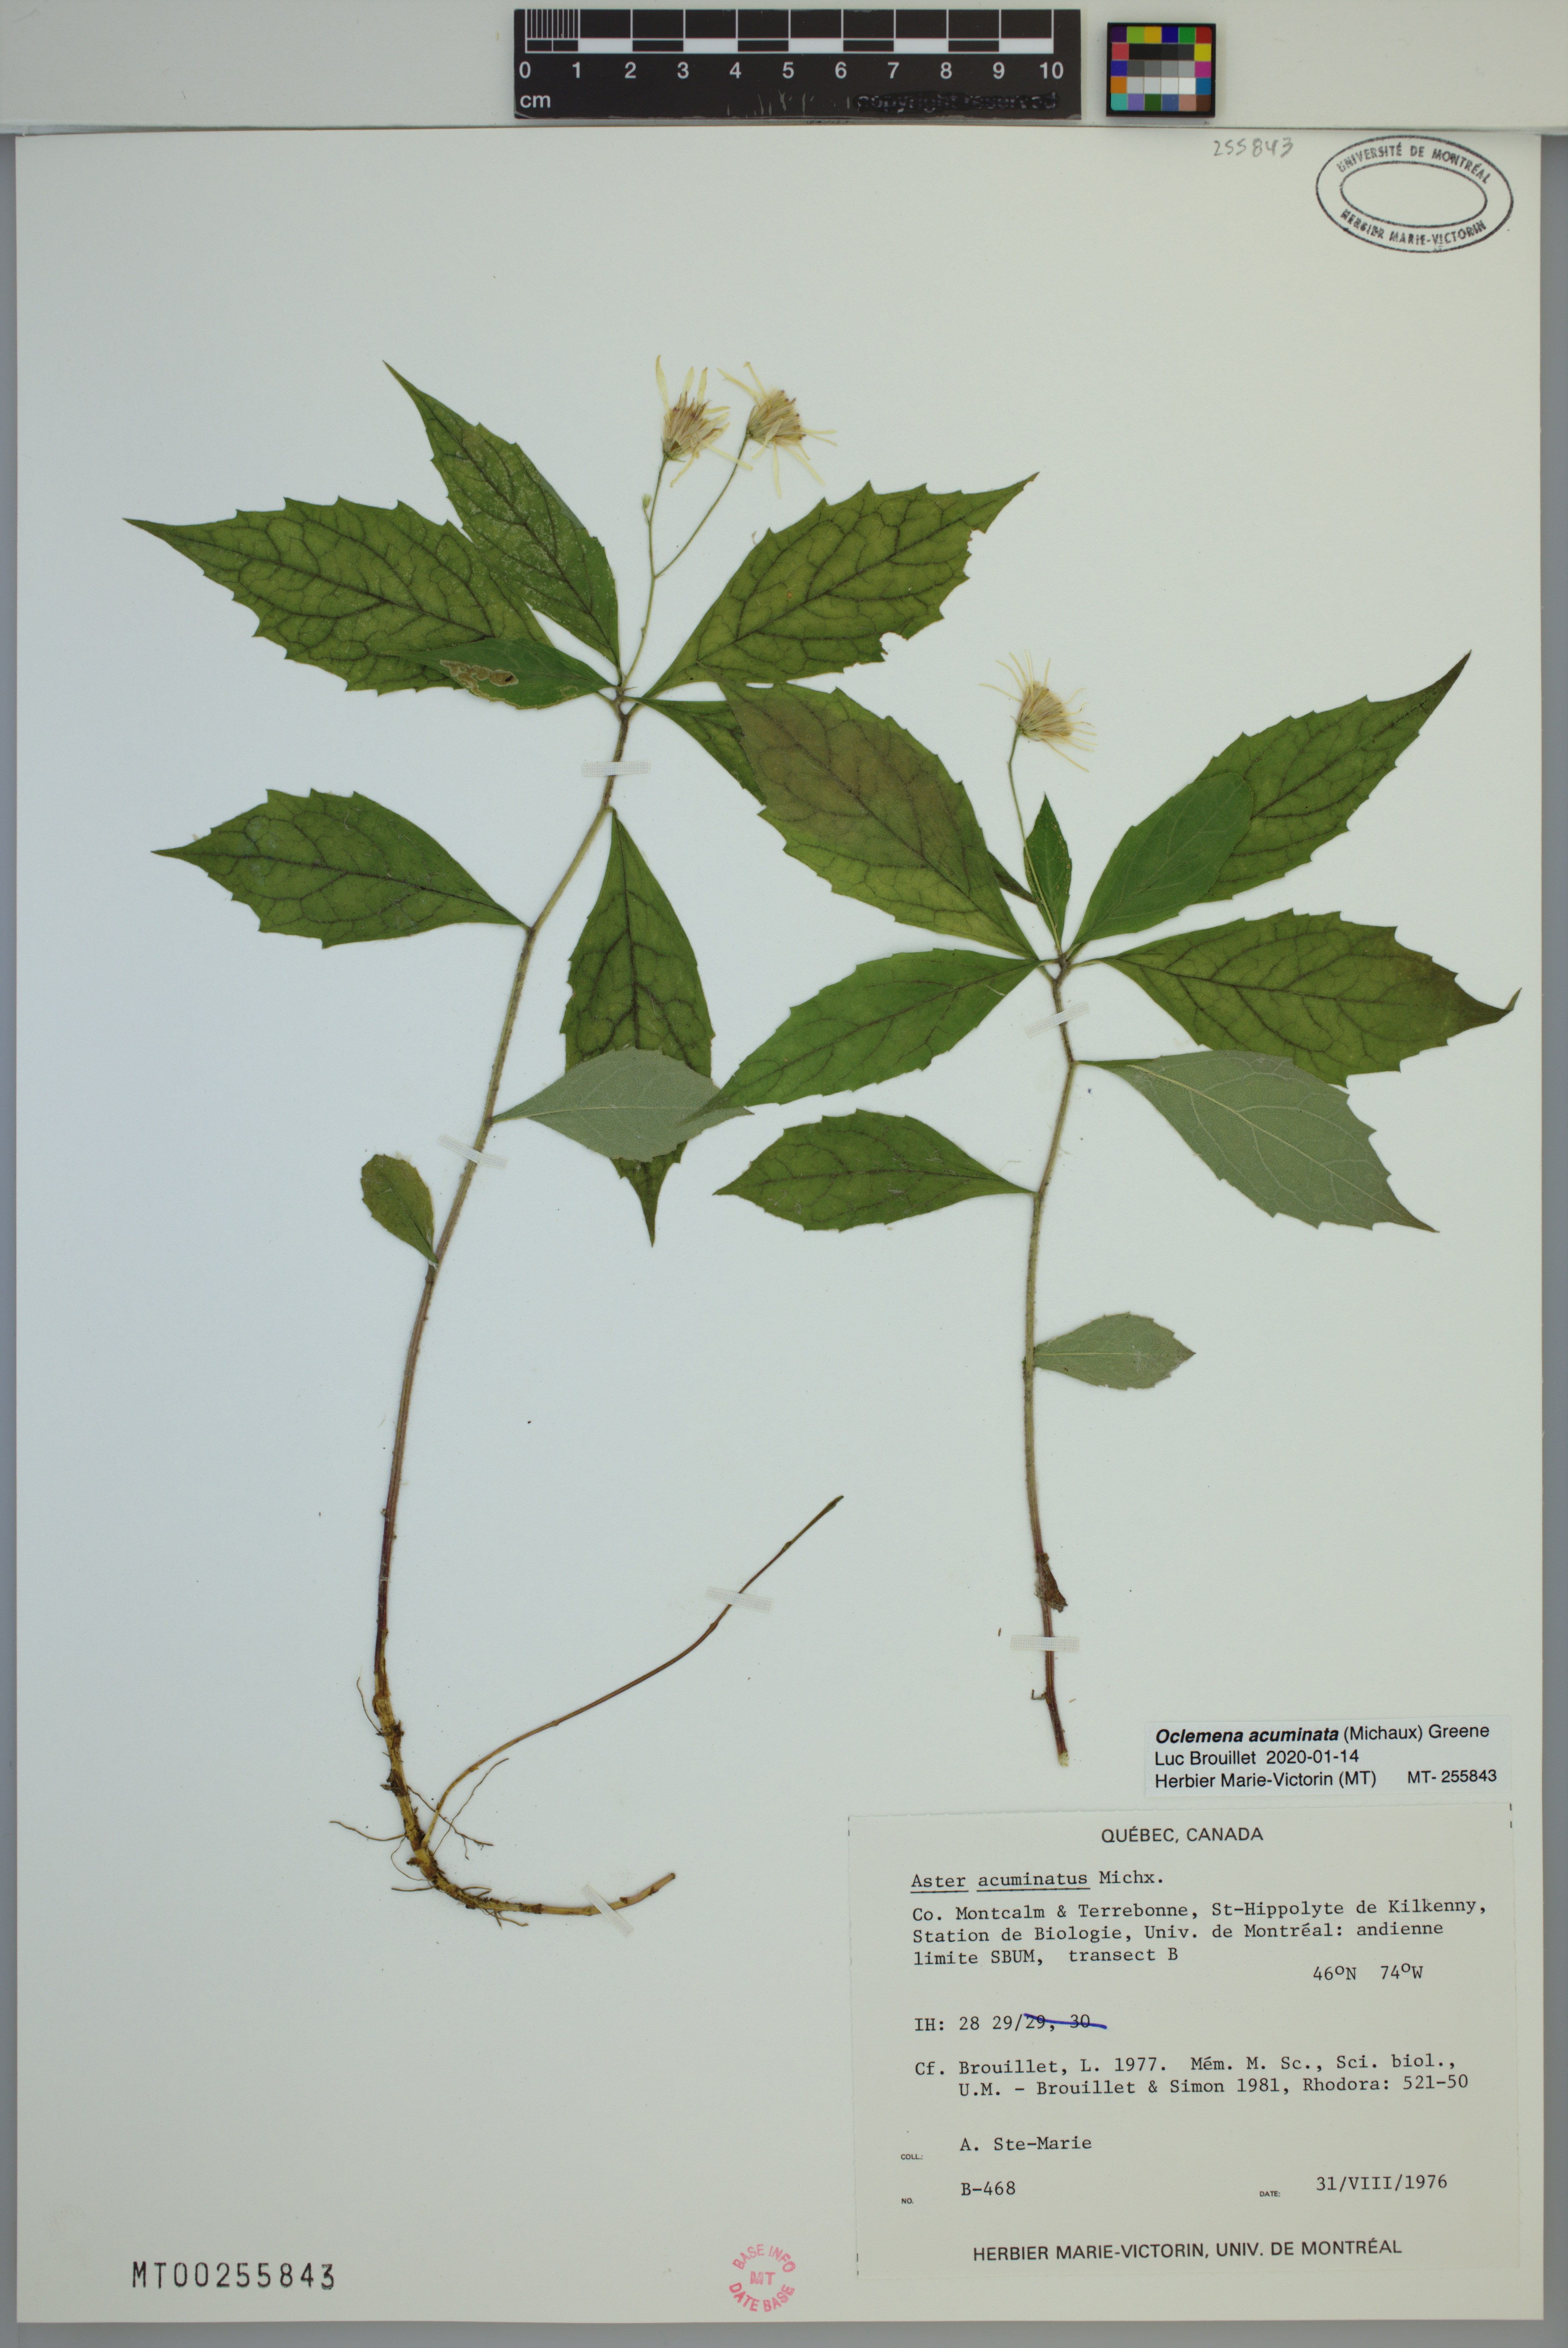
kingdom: Plantae
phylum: Tracheophyta
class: Magnoliopsida
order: Asterales
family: Asteraceae
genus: Oclemena
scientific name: Oclemena acuminata
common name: Mountain aster
